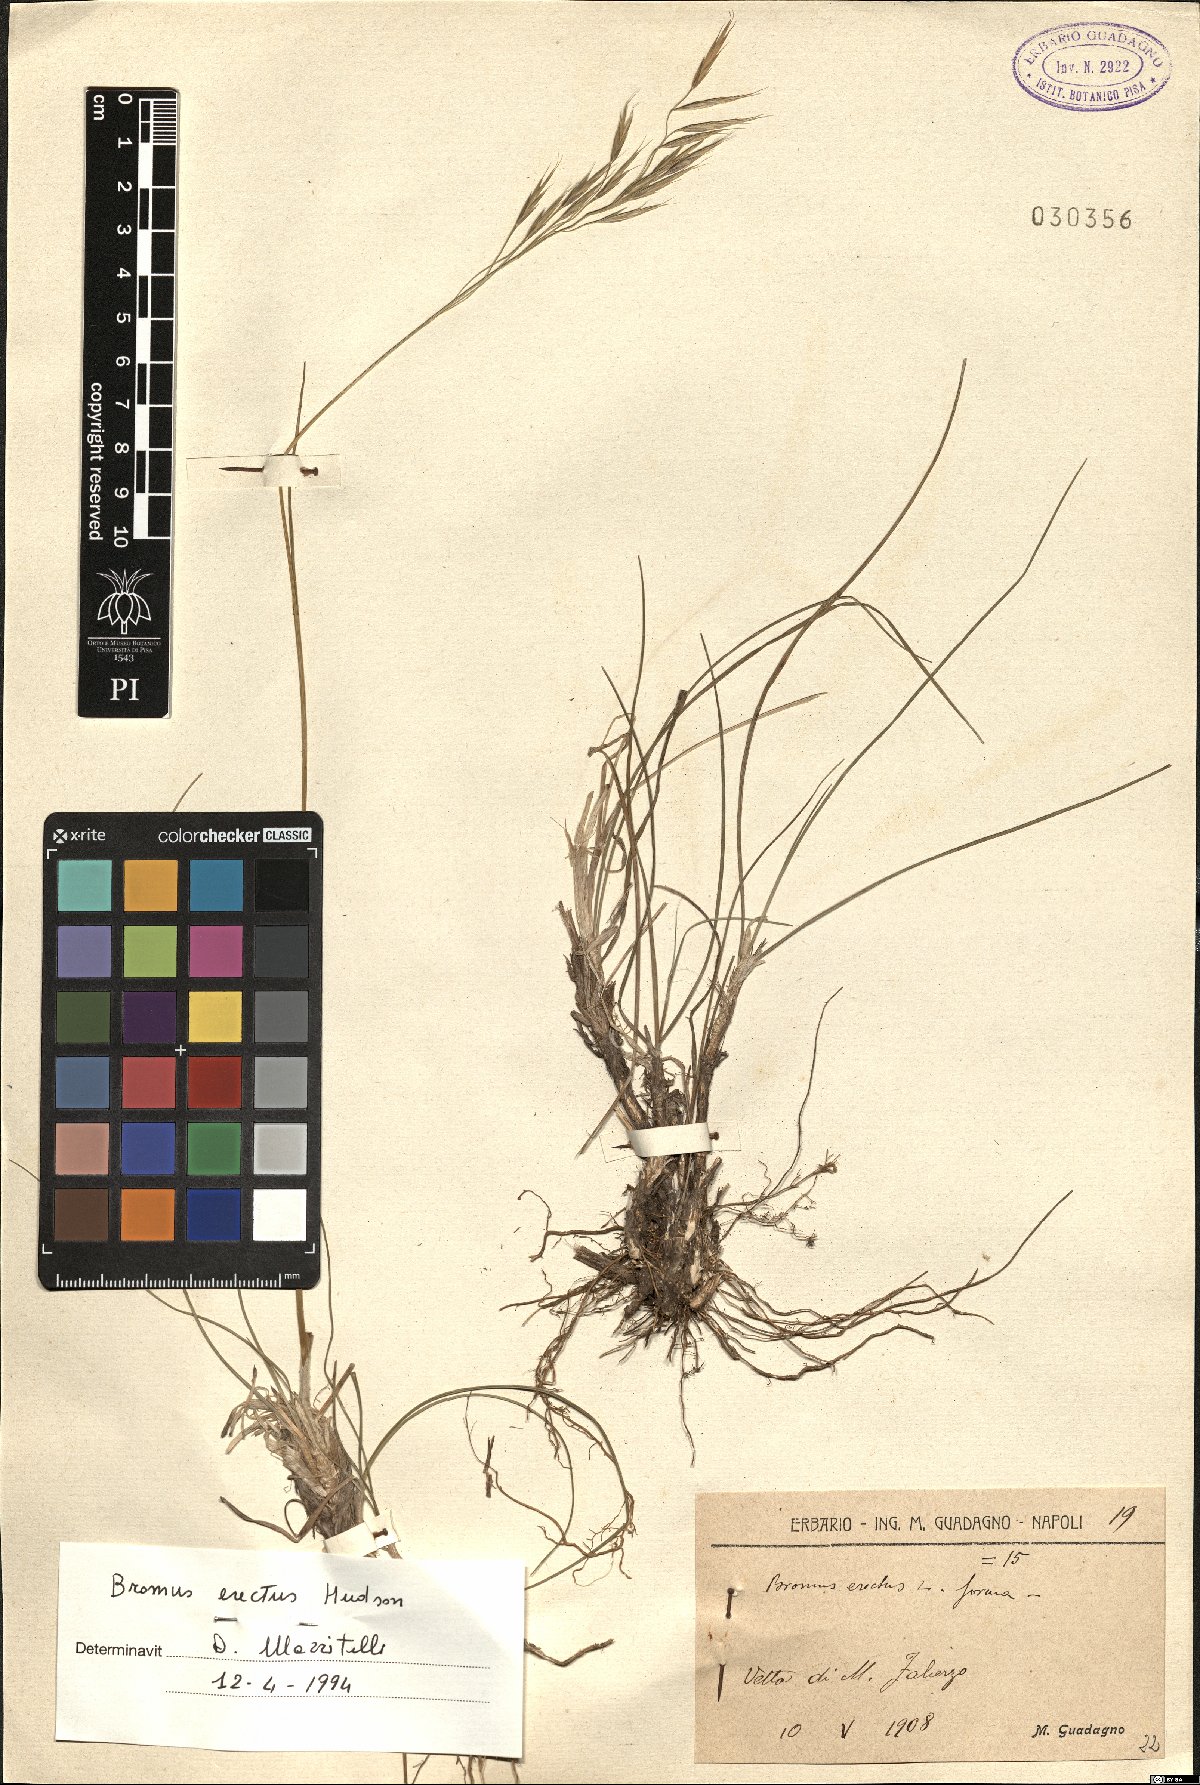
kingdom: Plantae
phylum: Tracheophyta
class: Liliopsida
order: Poales
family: Poaceae
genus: Bromus
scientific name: Bromus erectus
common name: Erect brome
